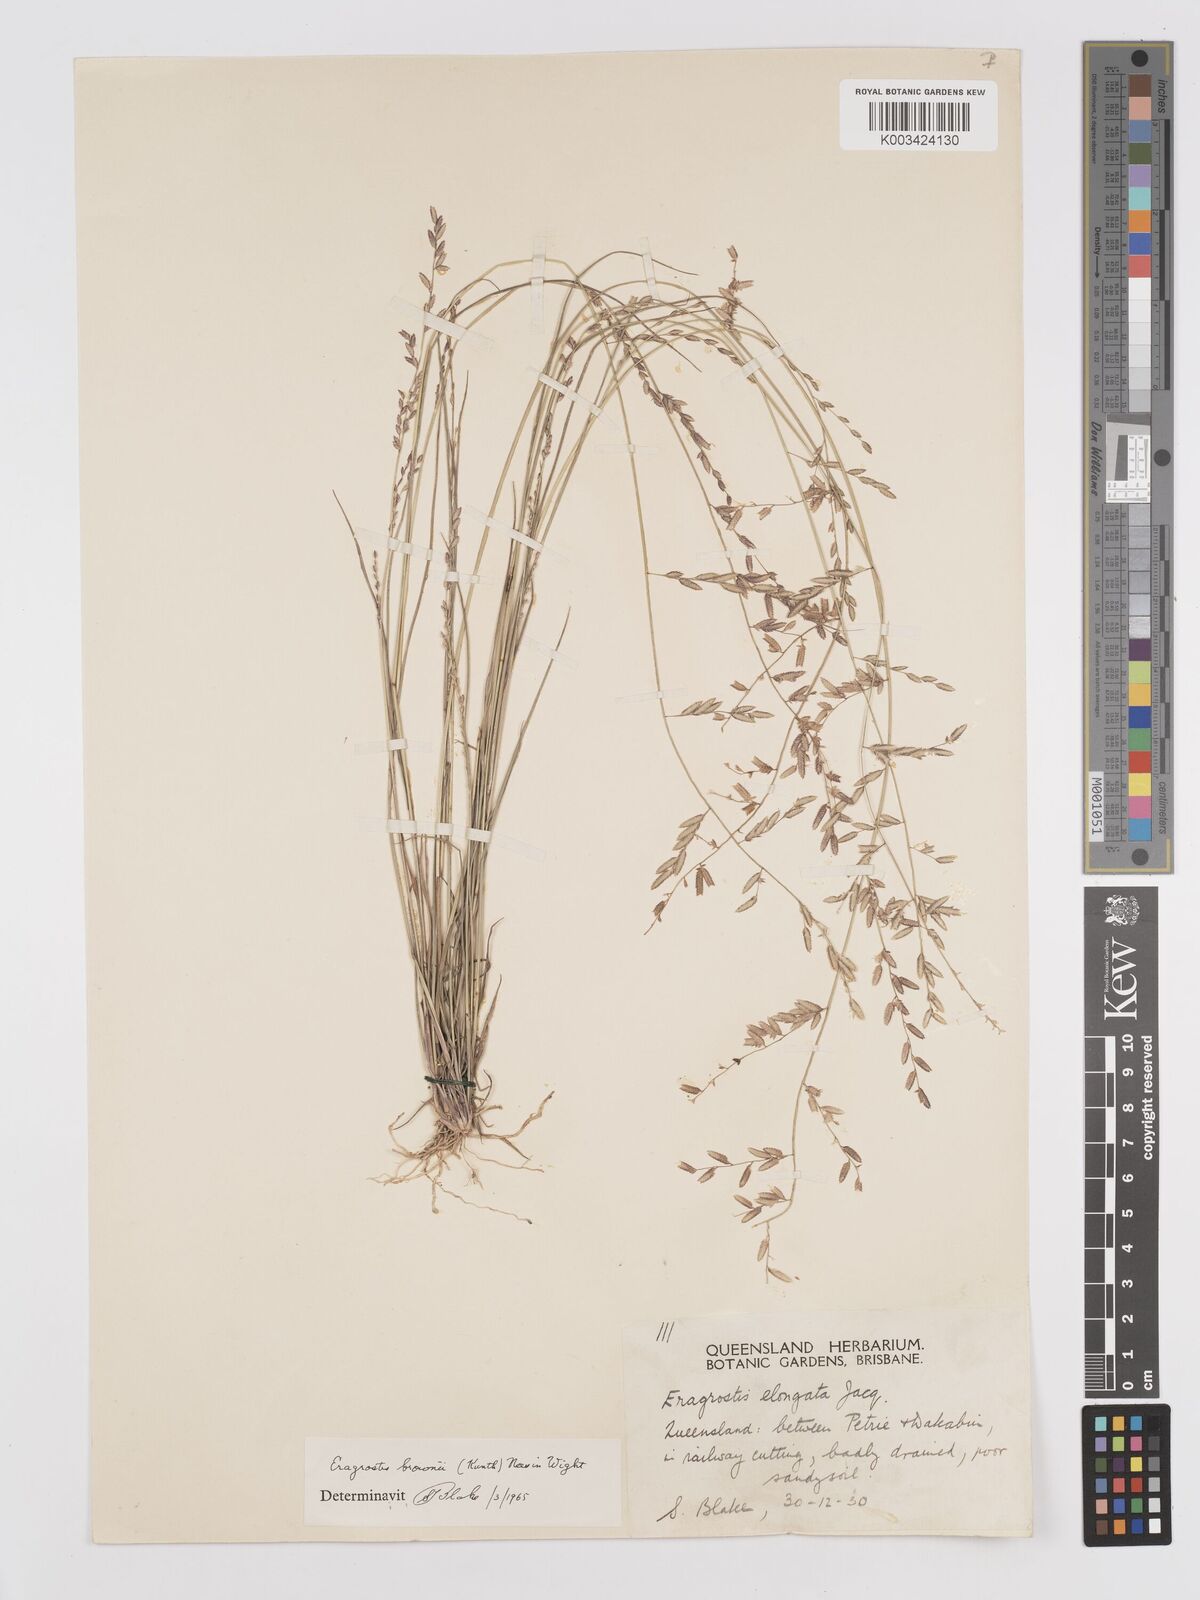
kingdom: Plantae
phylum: Tracheophyta
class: Liliopsida
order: Poales
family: Poaceae
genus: Eragrostis
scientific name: Eragrostis brownii
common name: Lovegrass
